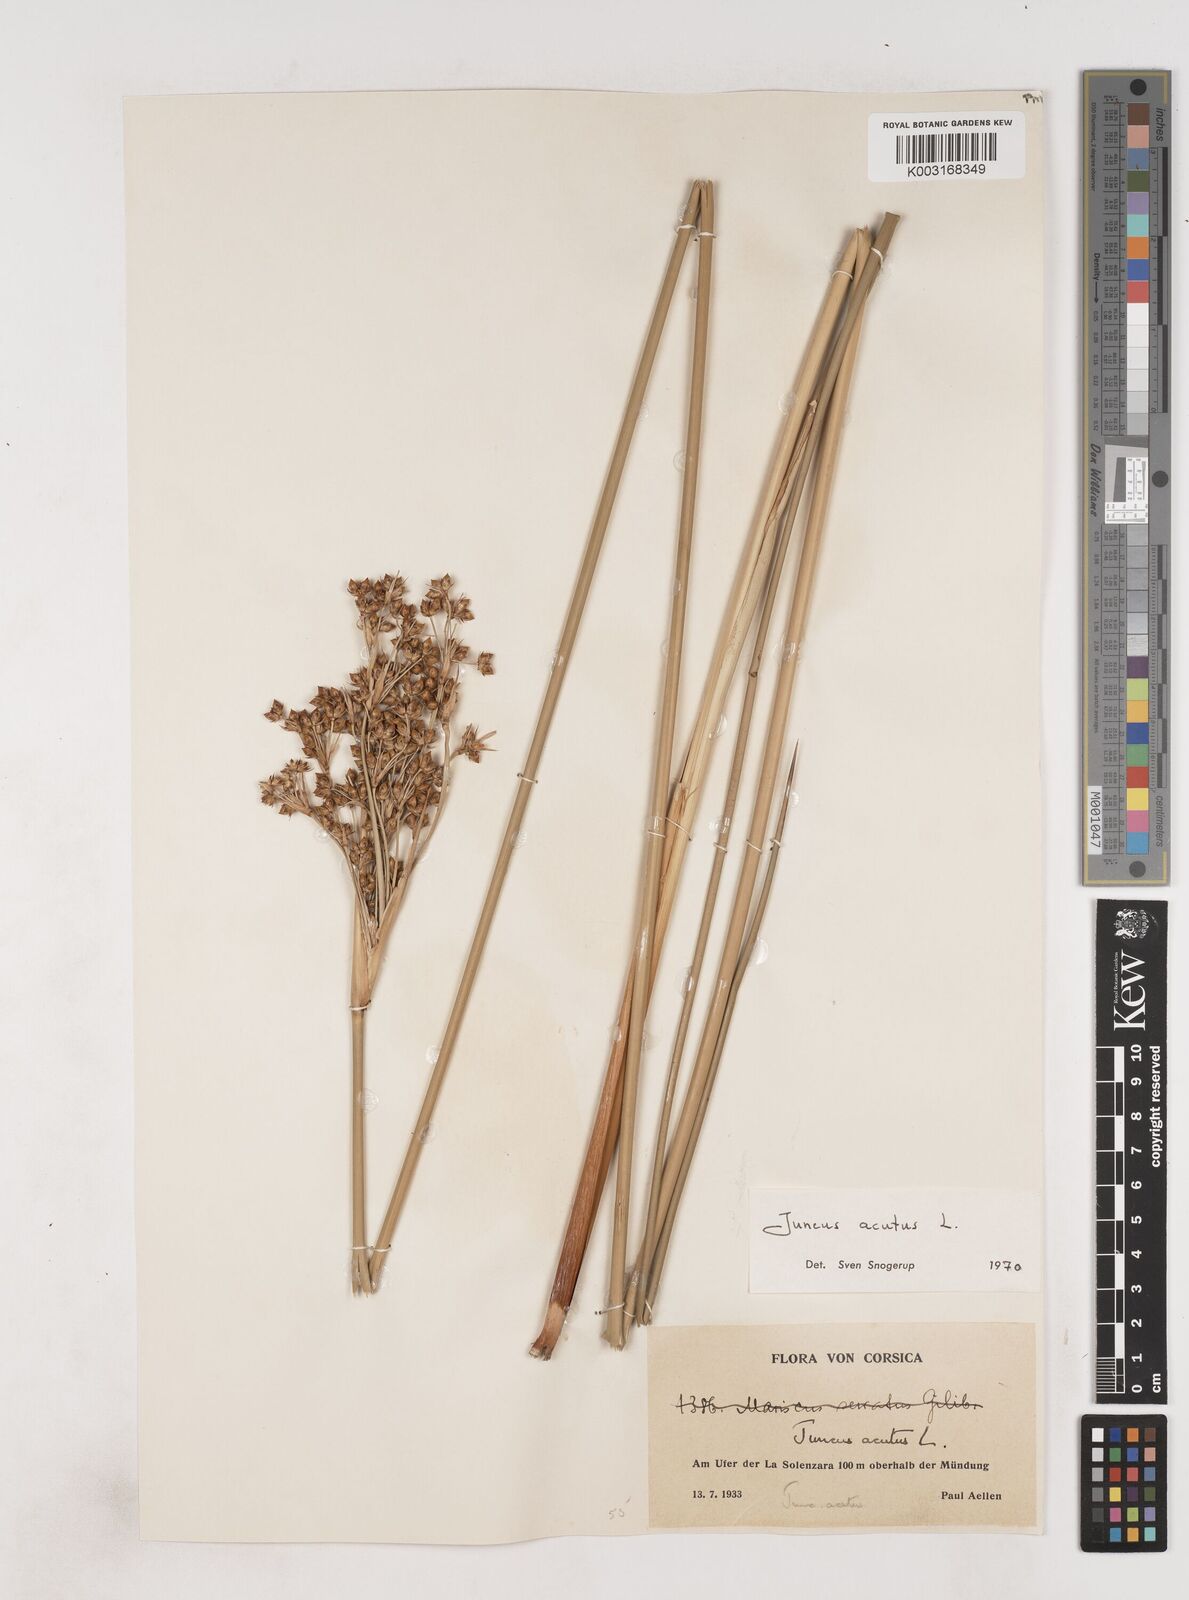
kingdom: Plantae
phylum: Tracheophyta
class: Liliopsida
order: Poales
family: Juncaceae
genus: Juncus
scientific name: Juncus acutus
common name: Sharp rush
